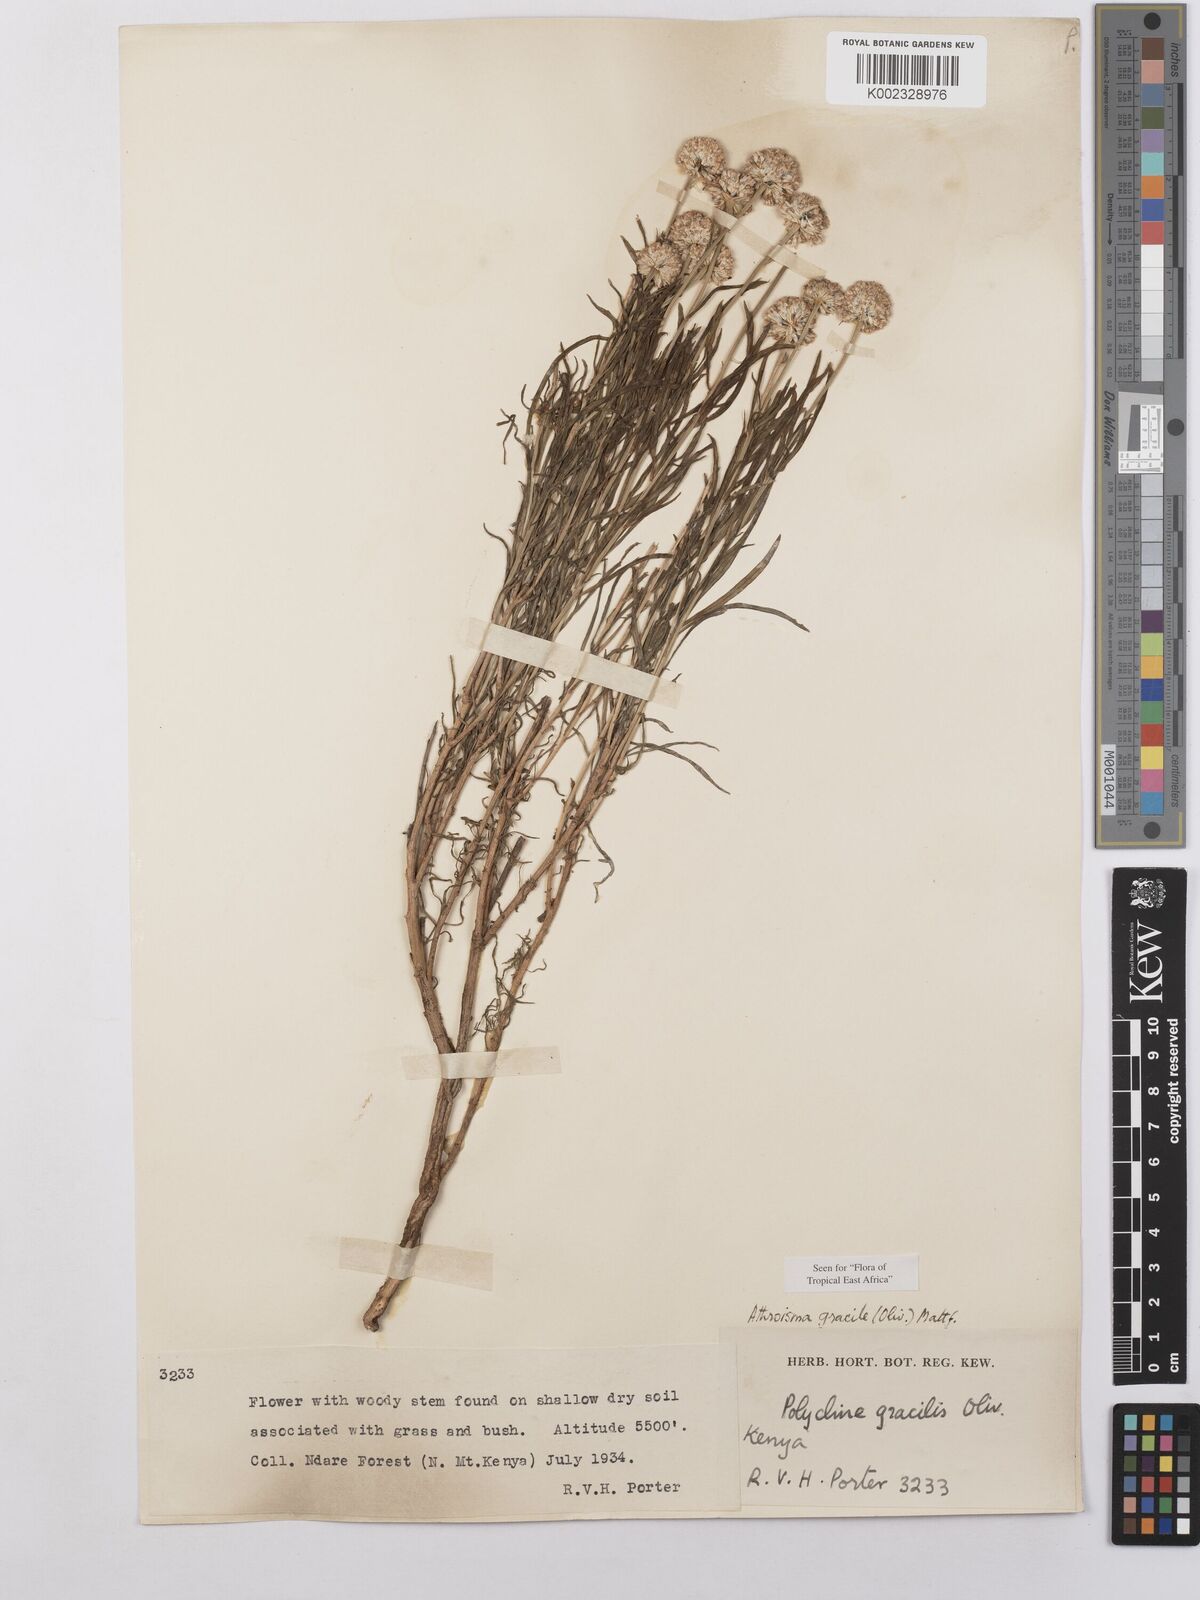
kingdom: Plantae
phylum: Tracheophyta
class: Magnoliopsida
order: Asterales
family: Asteraceae
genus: Athroisma
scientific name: Athroisma gracile
